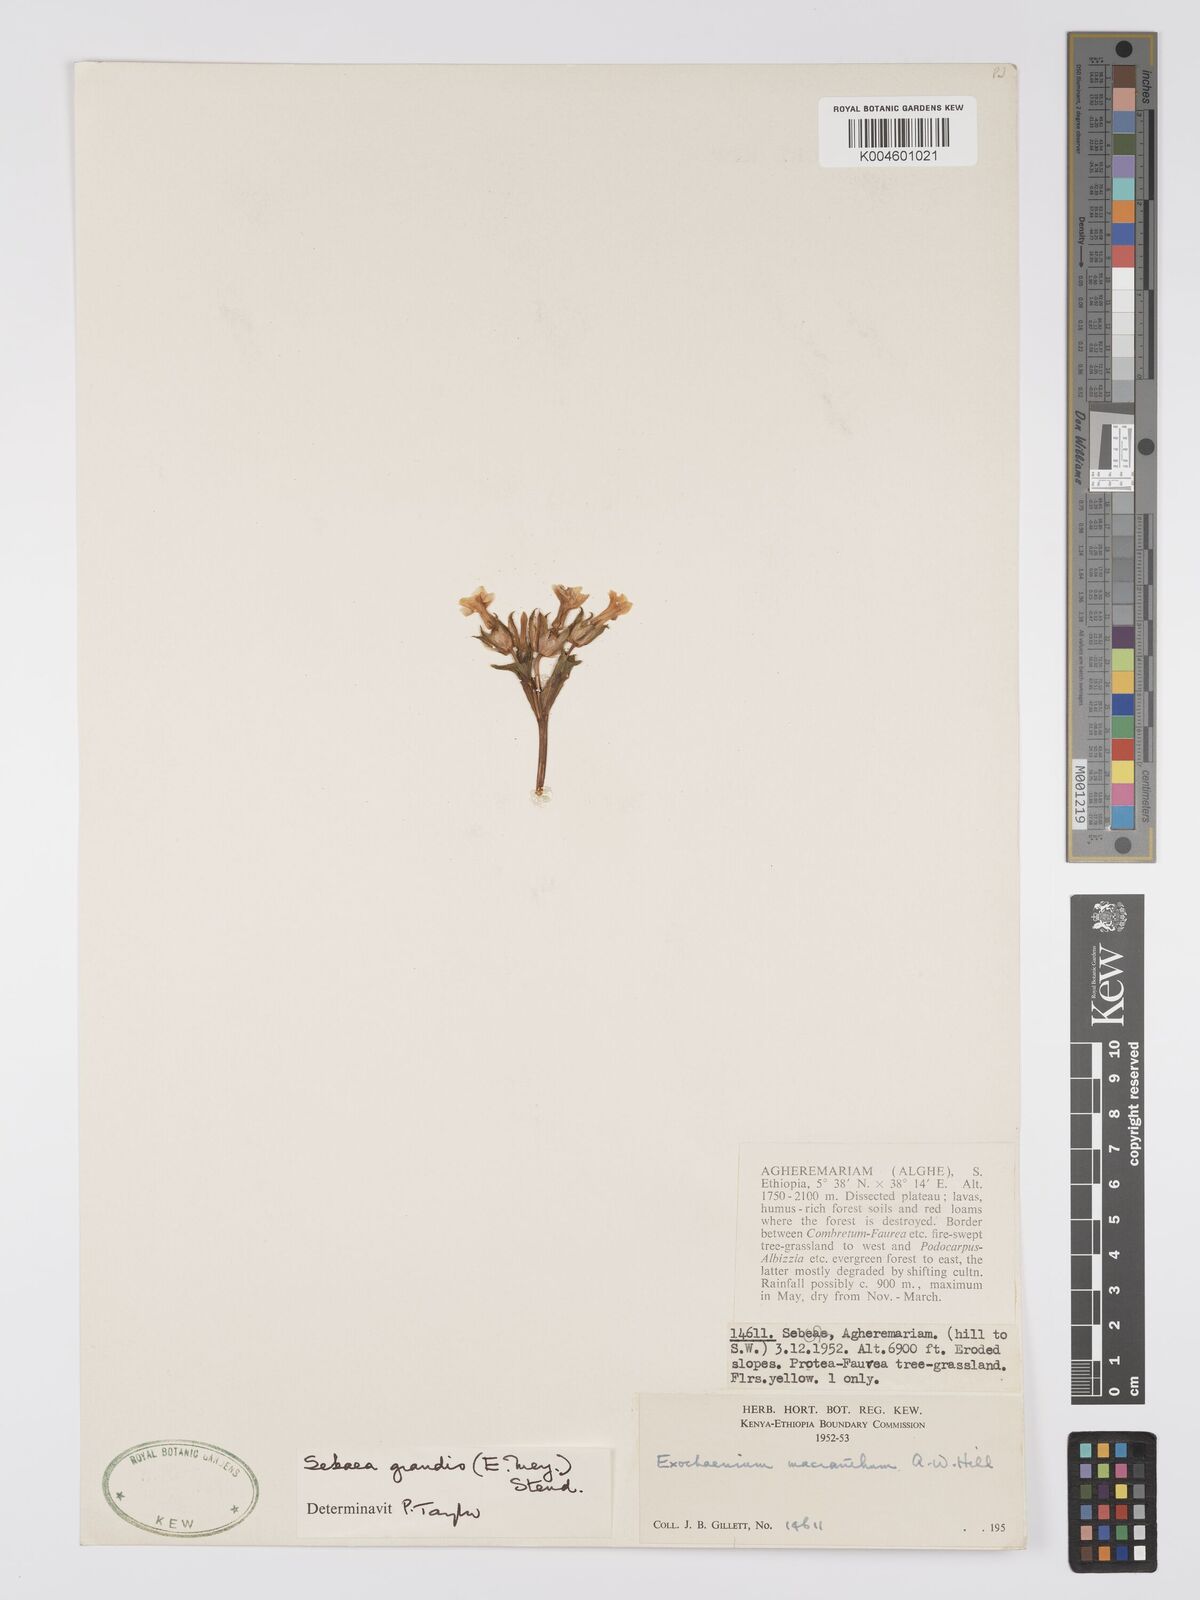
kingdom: Plantae
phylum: Tracheophyta
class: Magnoliopsida
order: Gentianales
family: Gentianaceae
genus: Exochaenium
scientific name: Exochaenium grande
